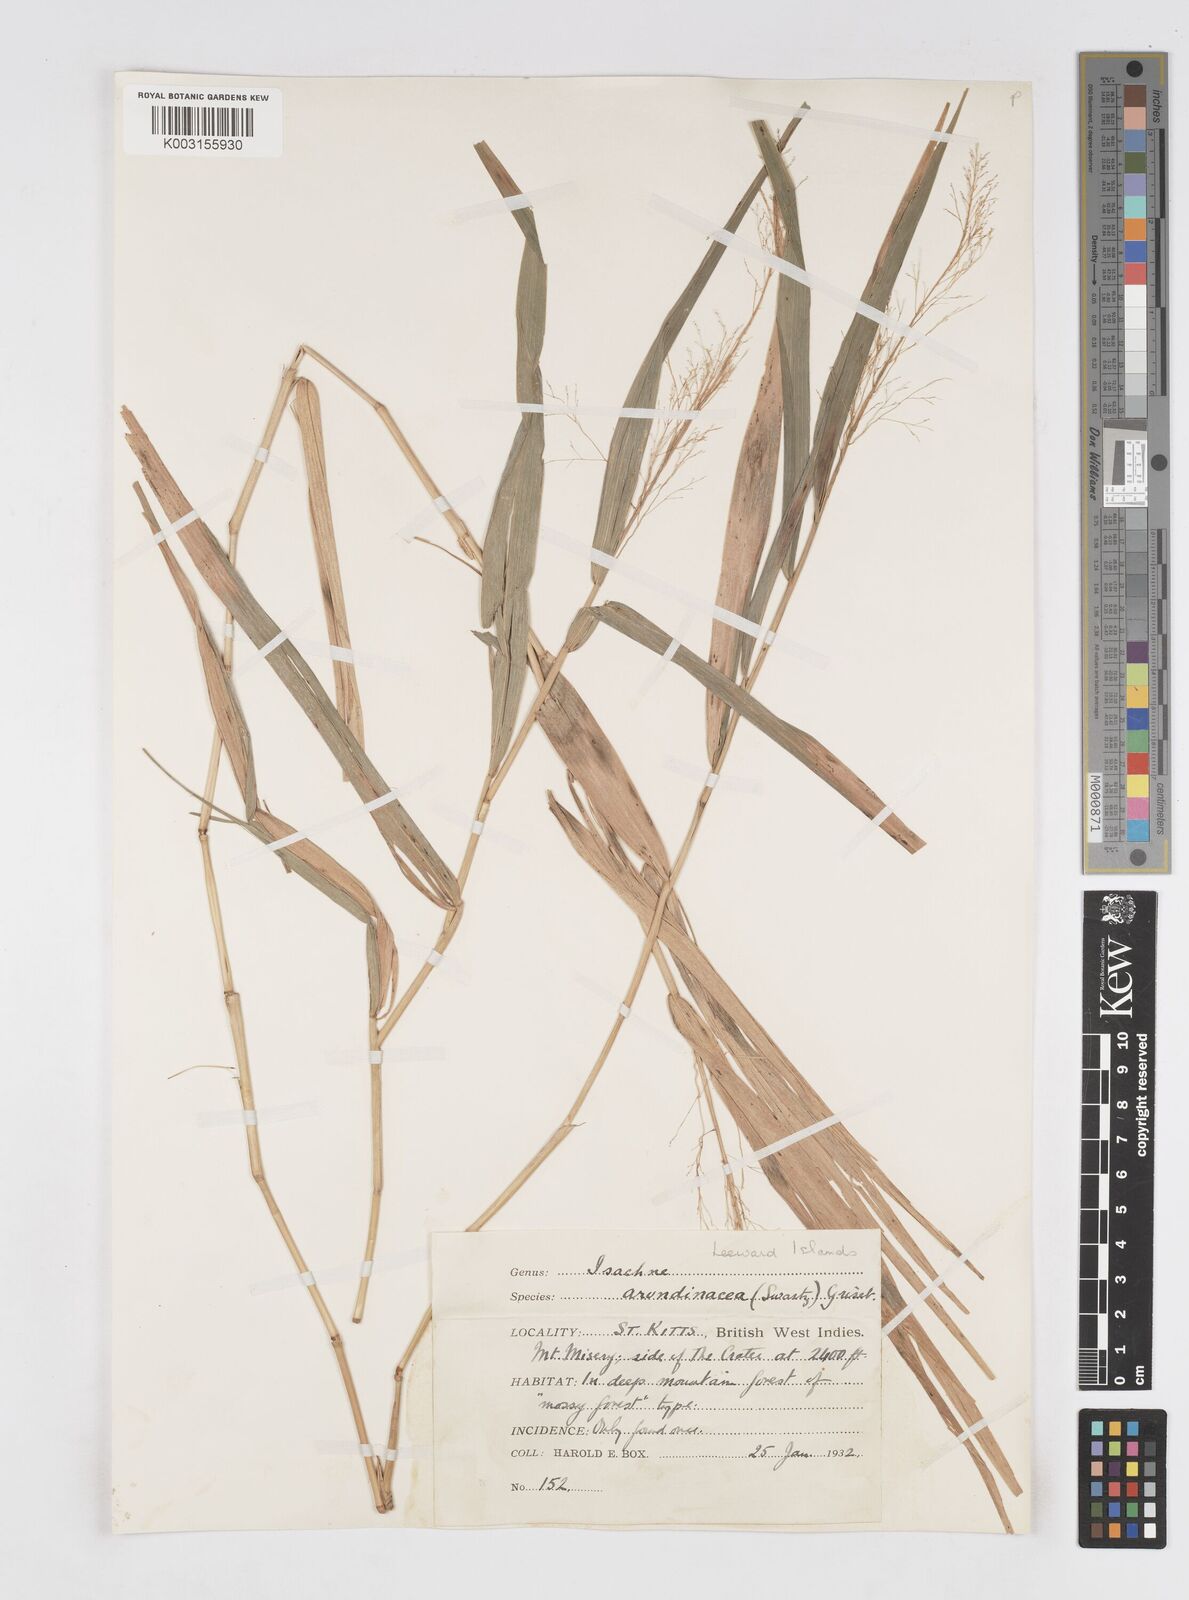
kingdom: Plantae
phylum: Tracheophyta
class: Liliopsida
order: Poales
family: Poaceae
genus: Isachne
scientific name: Isachne arundinacea
